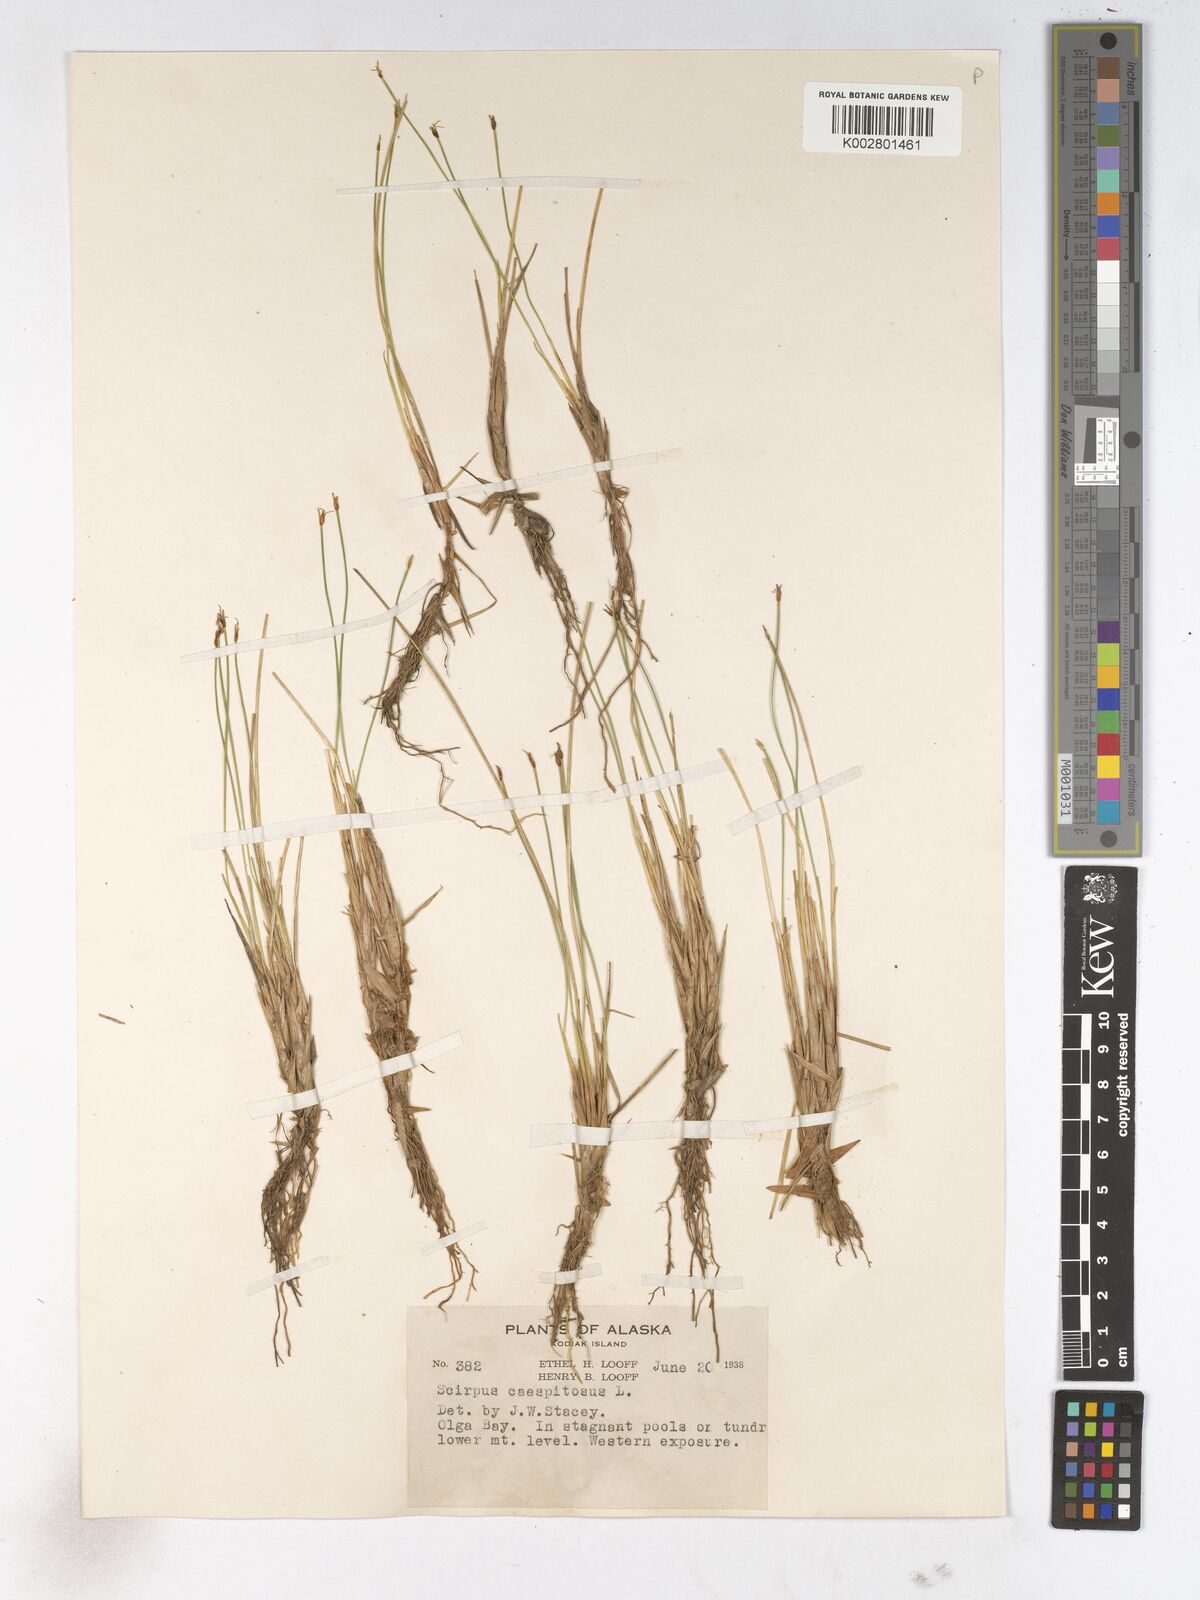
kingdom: Plantae
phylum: Tracheophyta
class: Liliopsida
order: Poales
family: Cyperaceae
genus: Trichophorum
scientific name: Trichophorum cespitosum
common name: Cespitose bulrush
